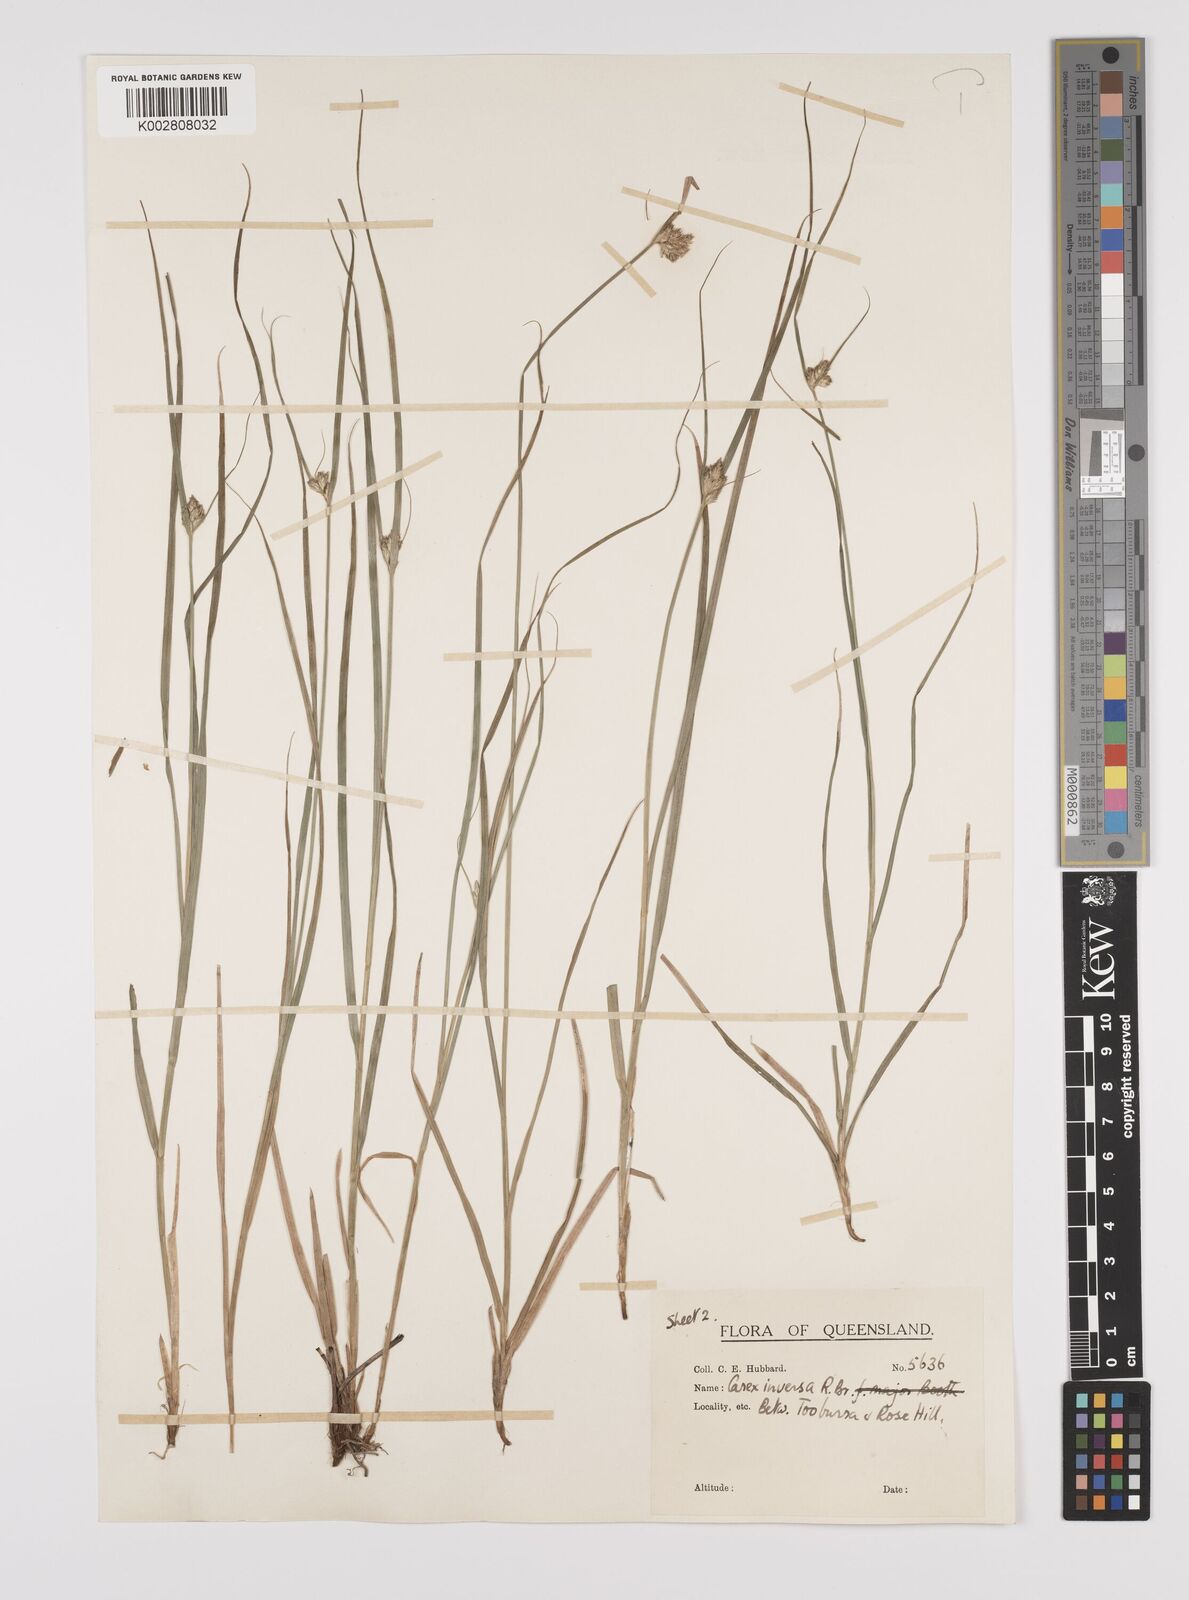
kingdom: Plantae
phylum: Tracheophyta
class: Liliopsida
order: Poales
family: Cyperaceae
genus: Carex
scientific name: Carex inversa
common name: Knob sedge
